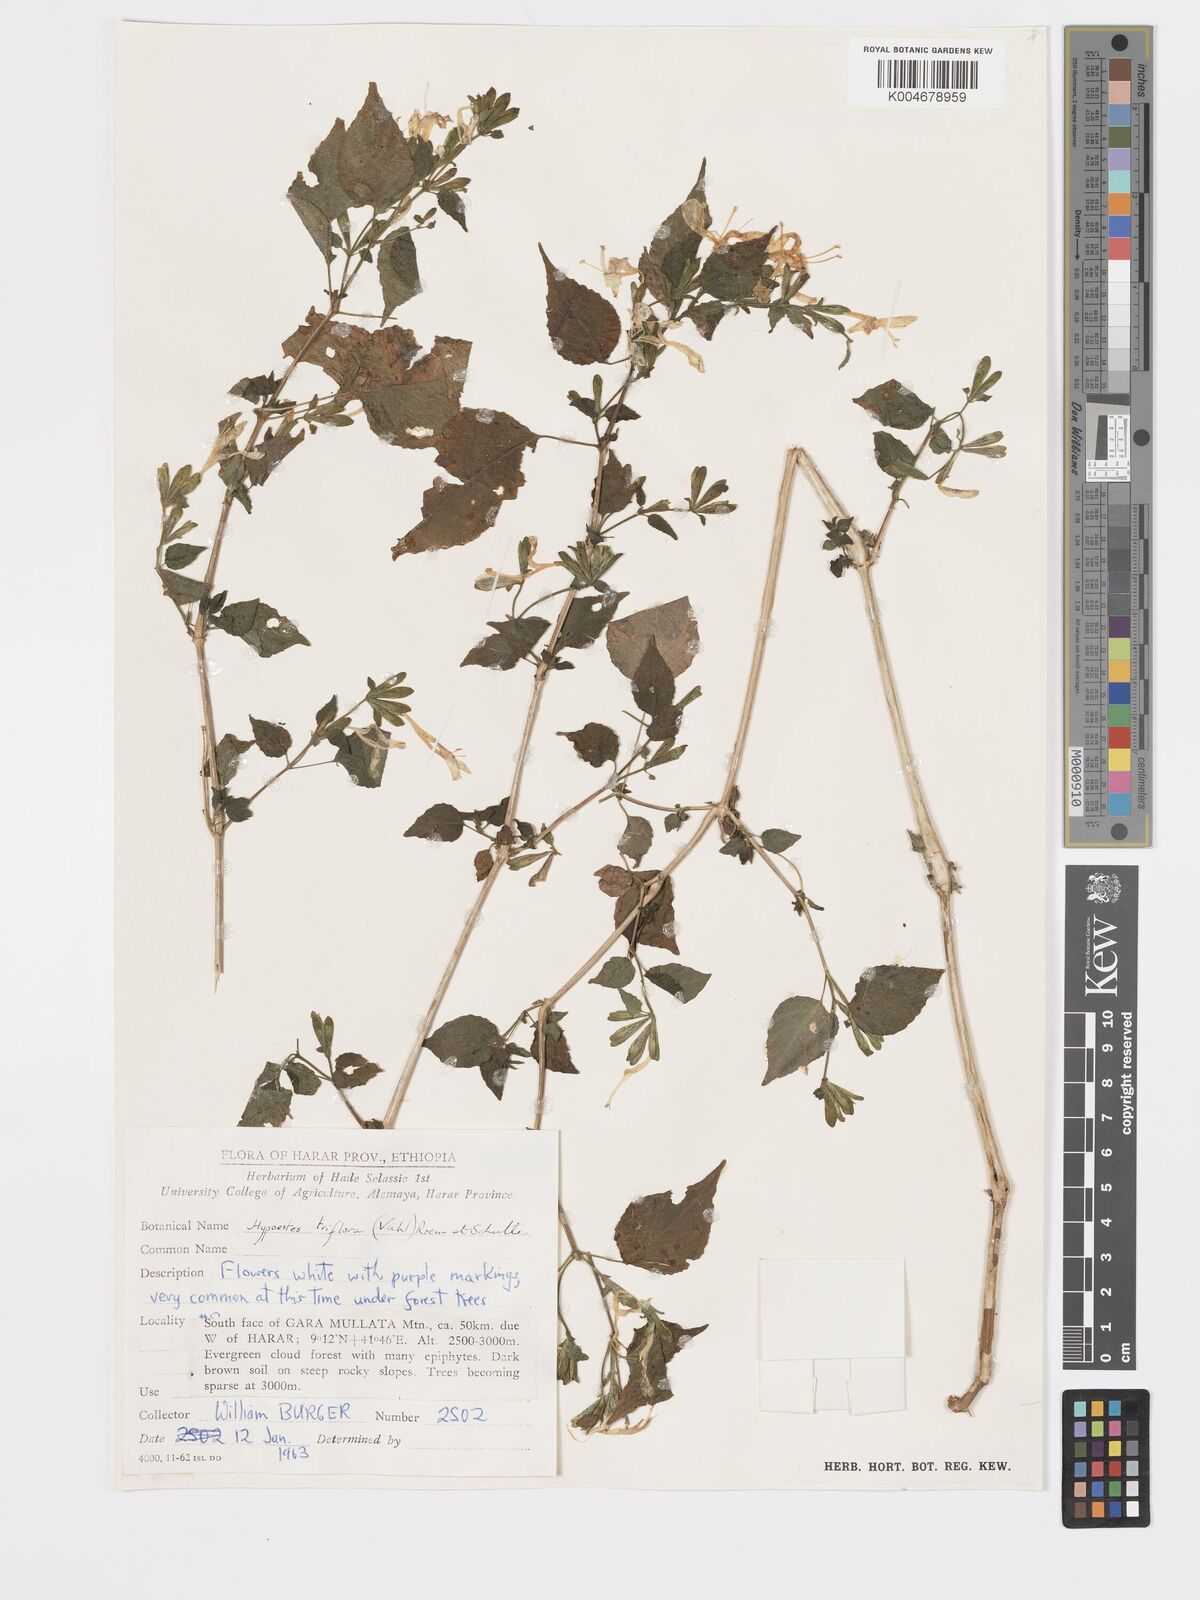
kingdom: Plantae
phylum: Tracheophyta
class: Magnoliopsida
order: Lamiales
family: Acanthaceae
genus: Hypoestes
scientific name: Hypoestes triflora
